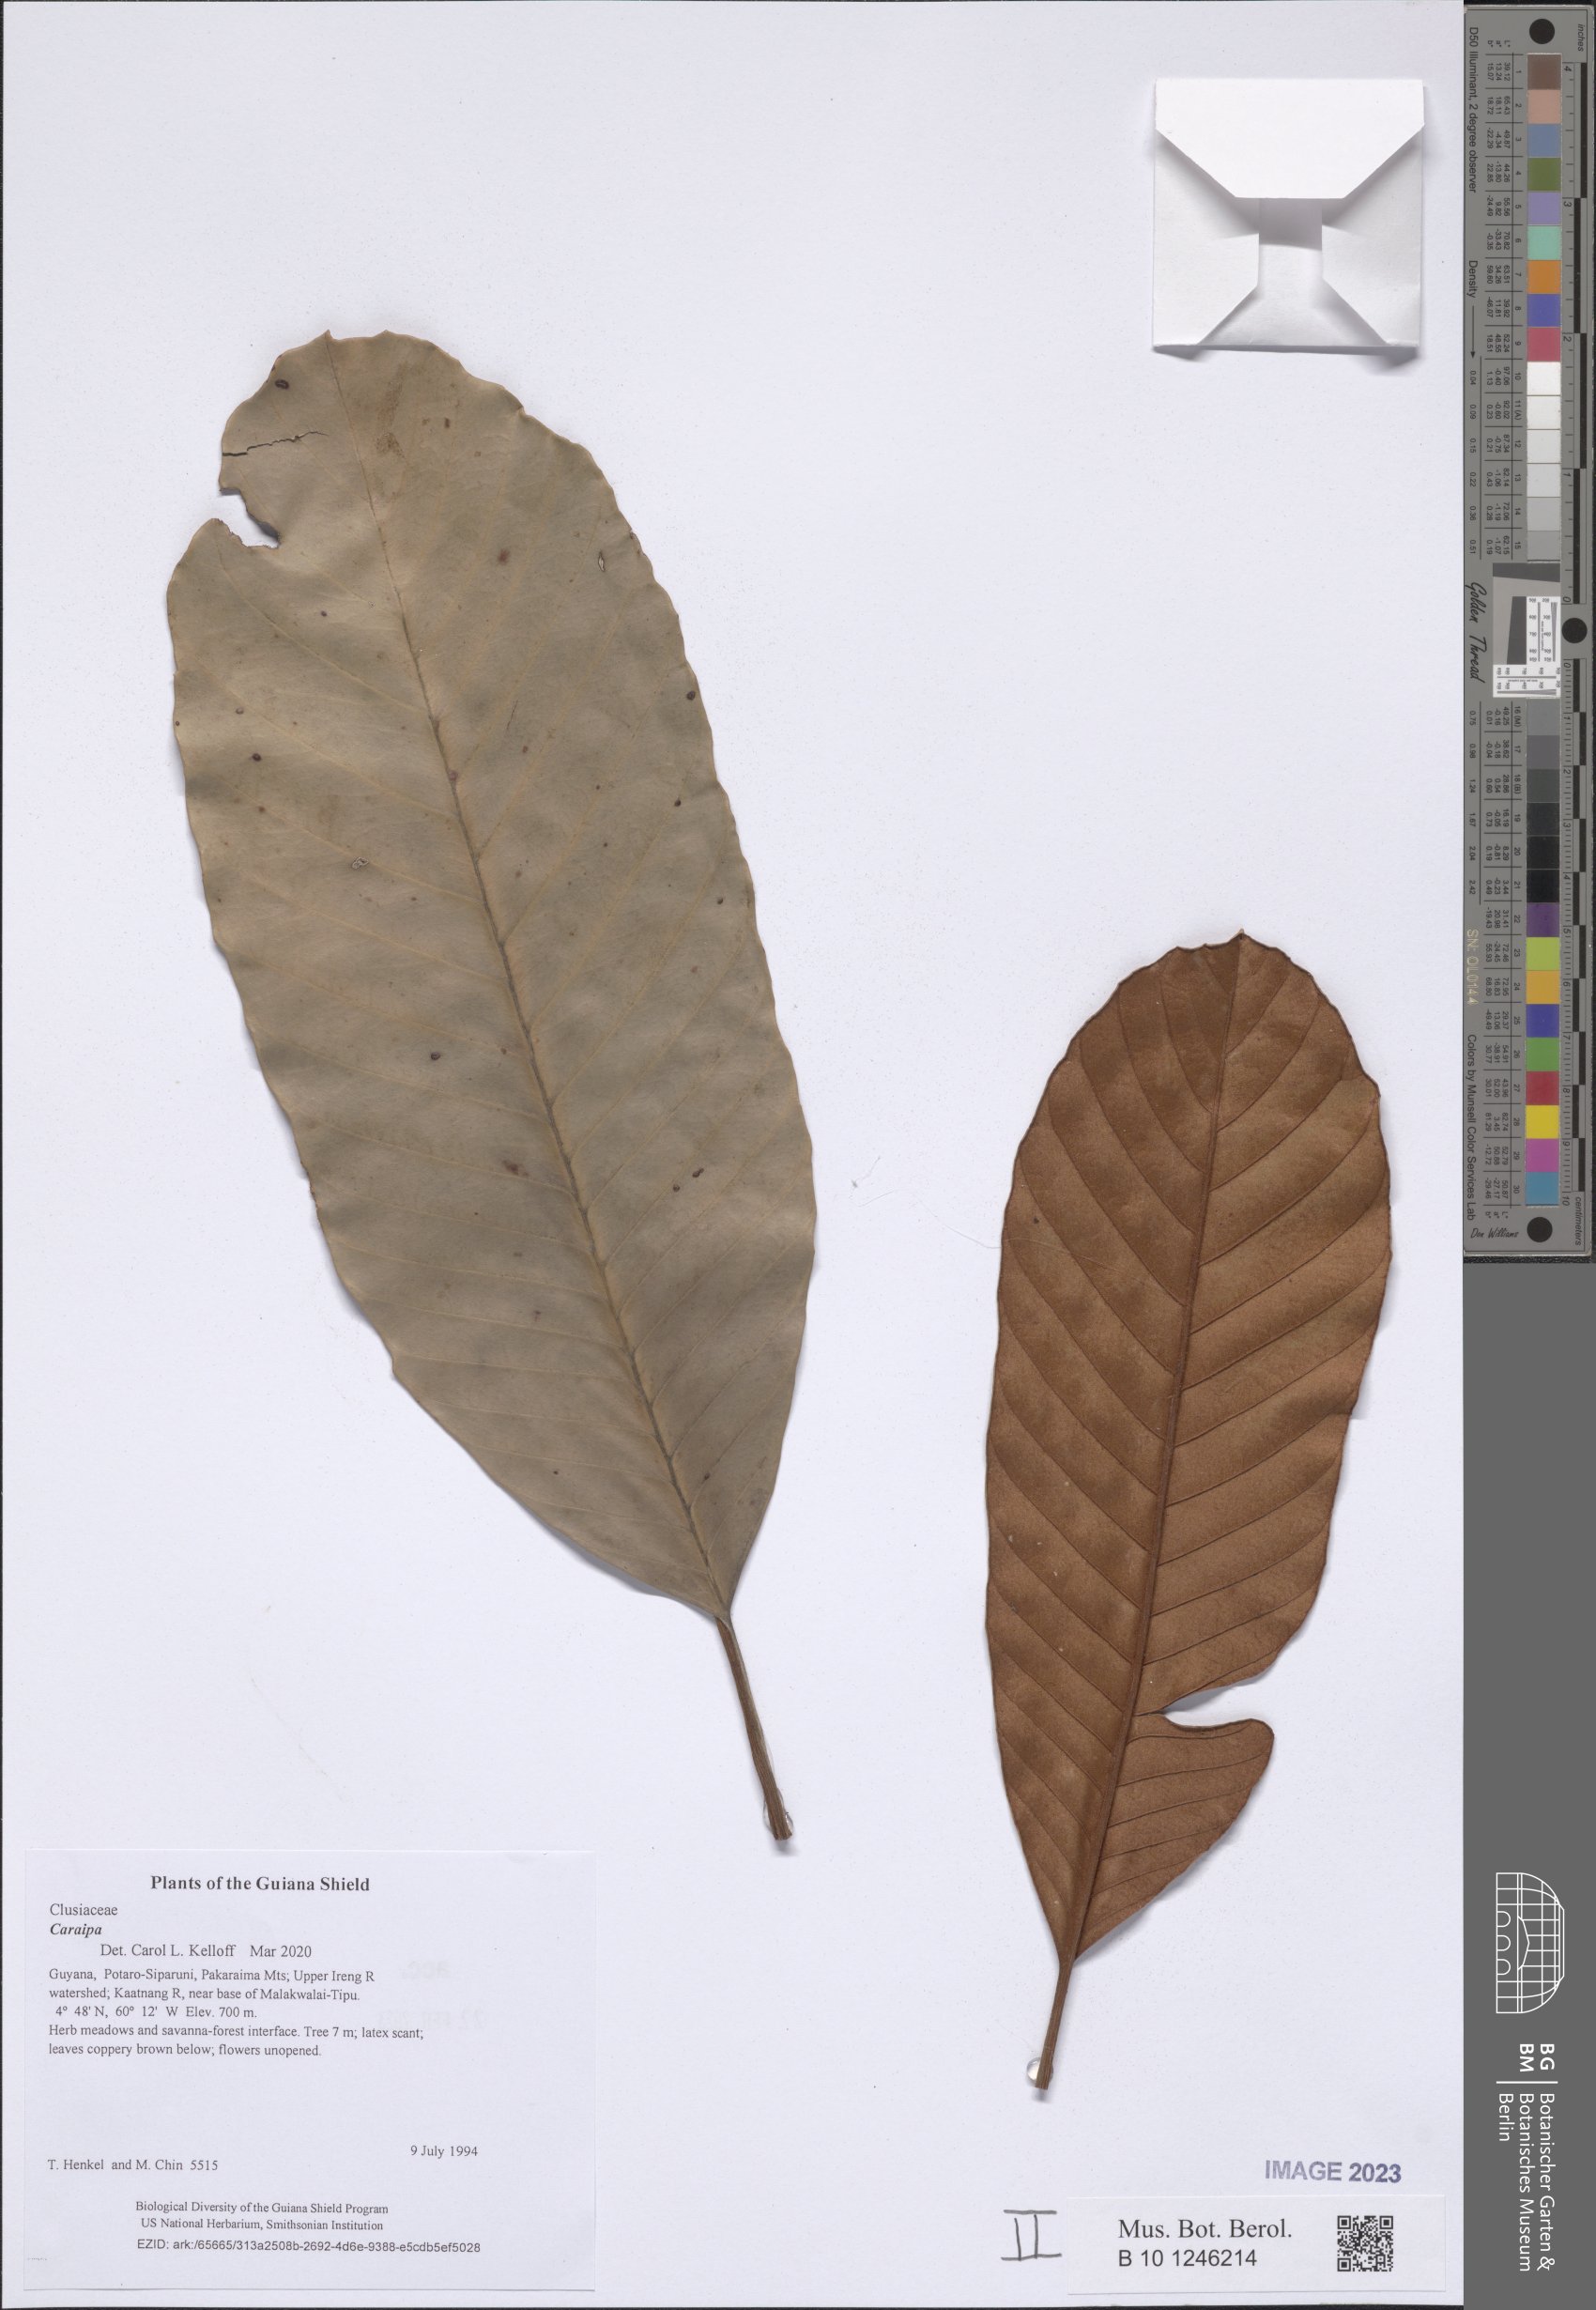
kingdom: Plantae
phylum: Tracheophyta
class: Magnoliopsida
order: Malpighiales
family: Calophyllaceae
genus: Caraipa
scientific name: Caraipa
